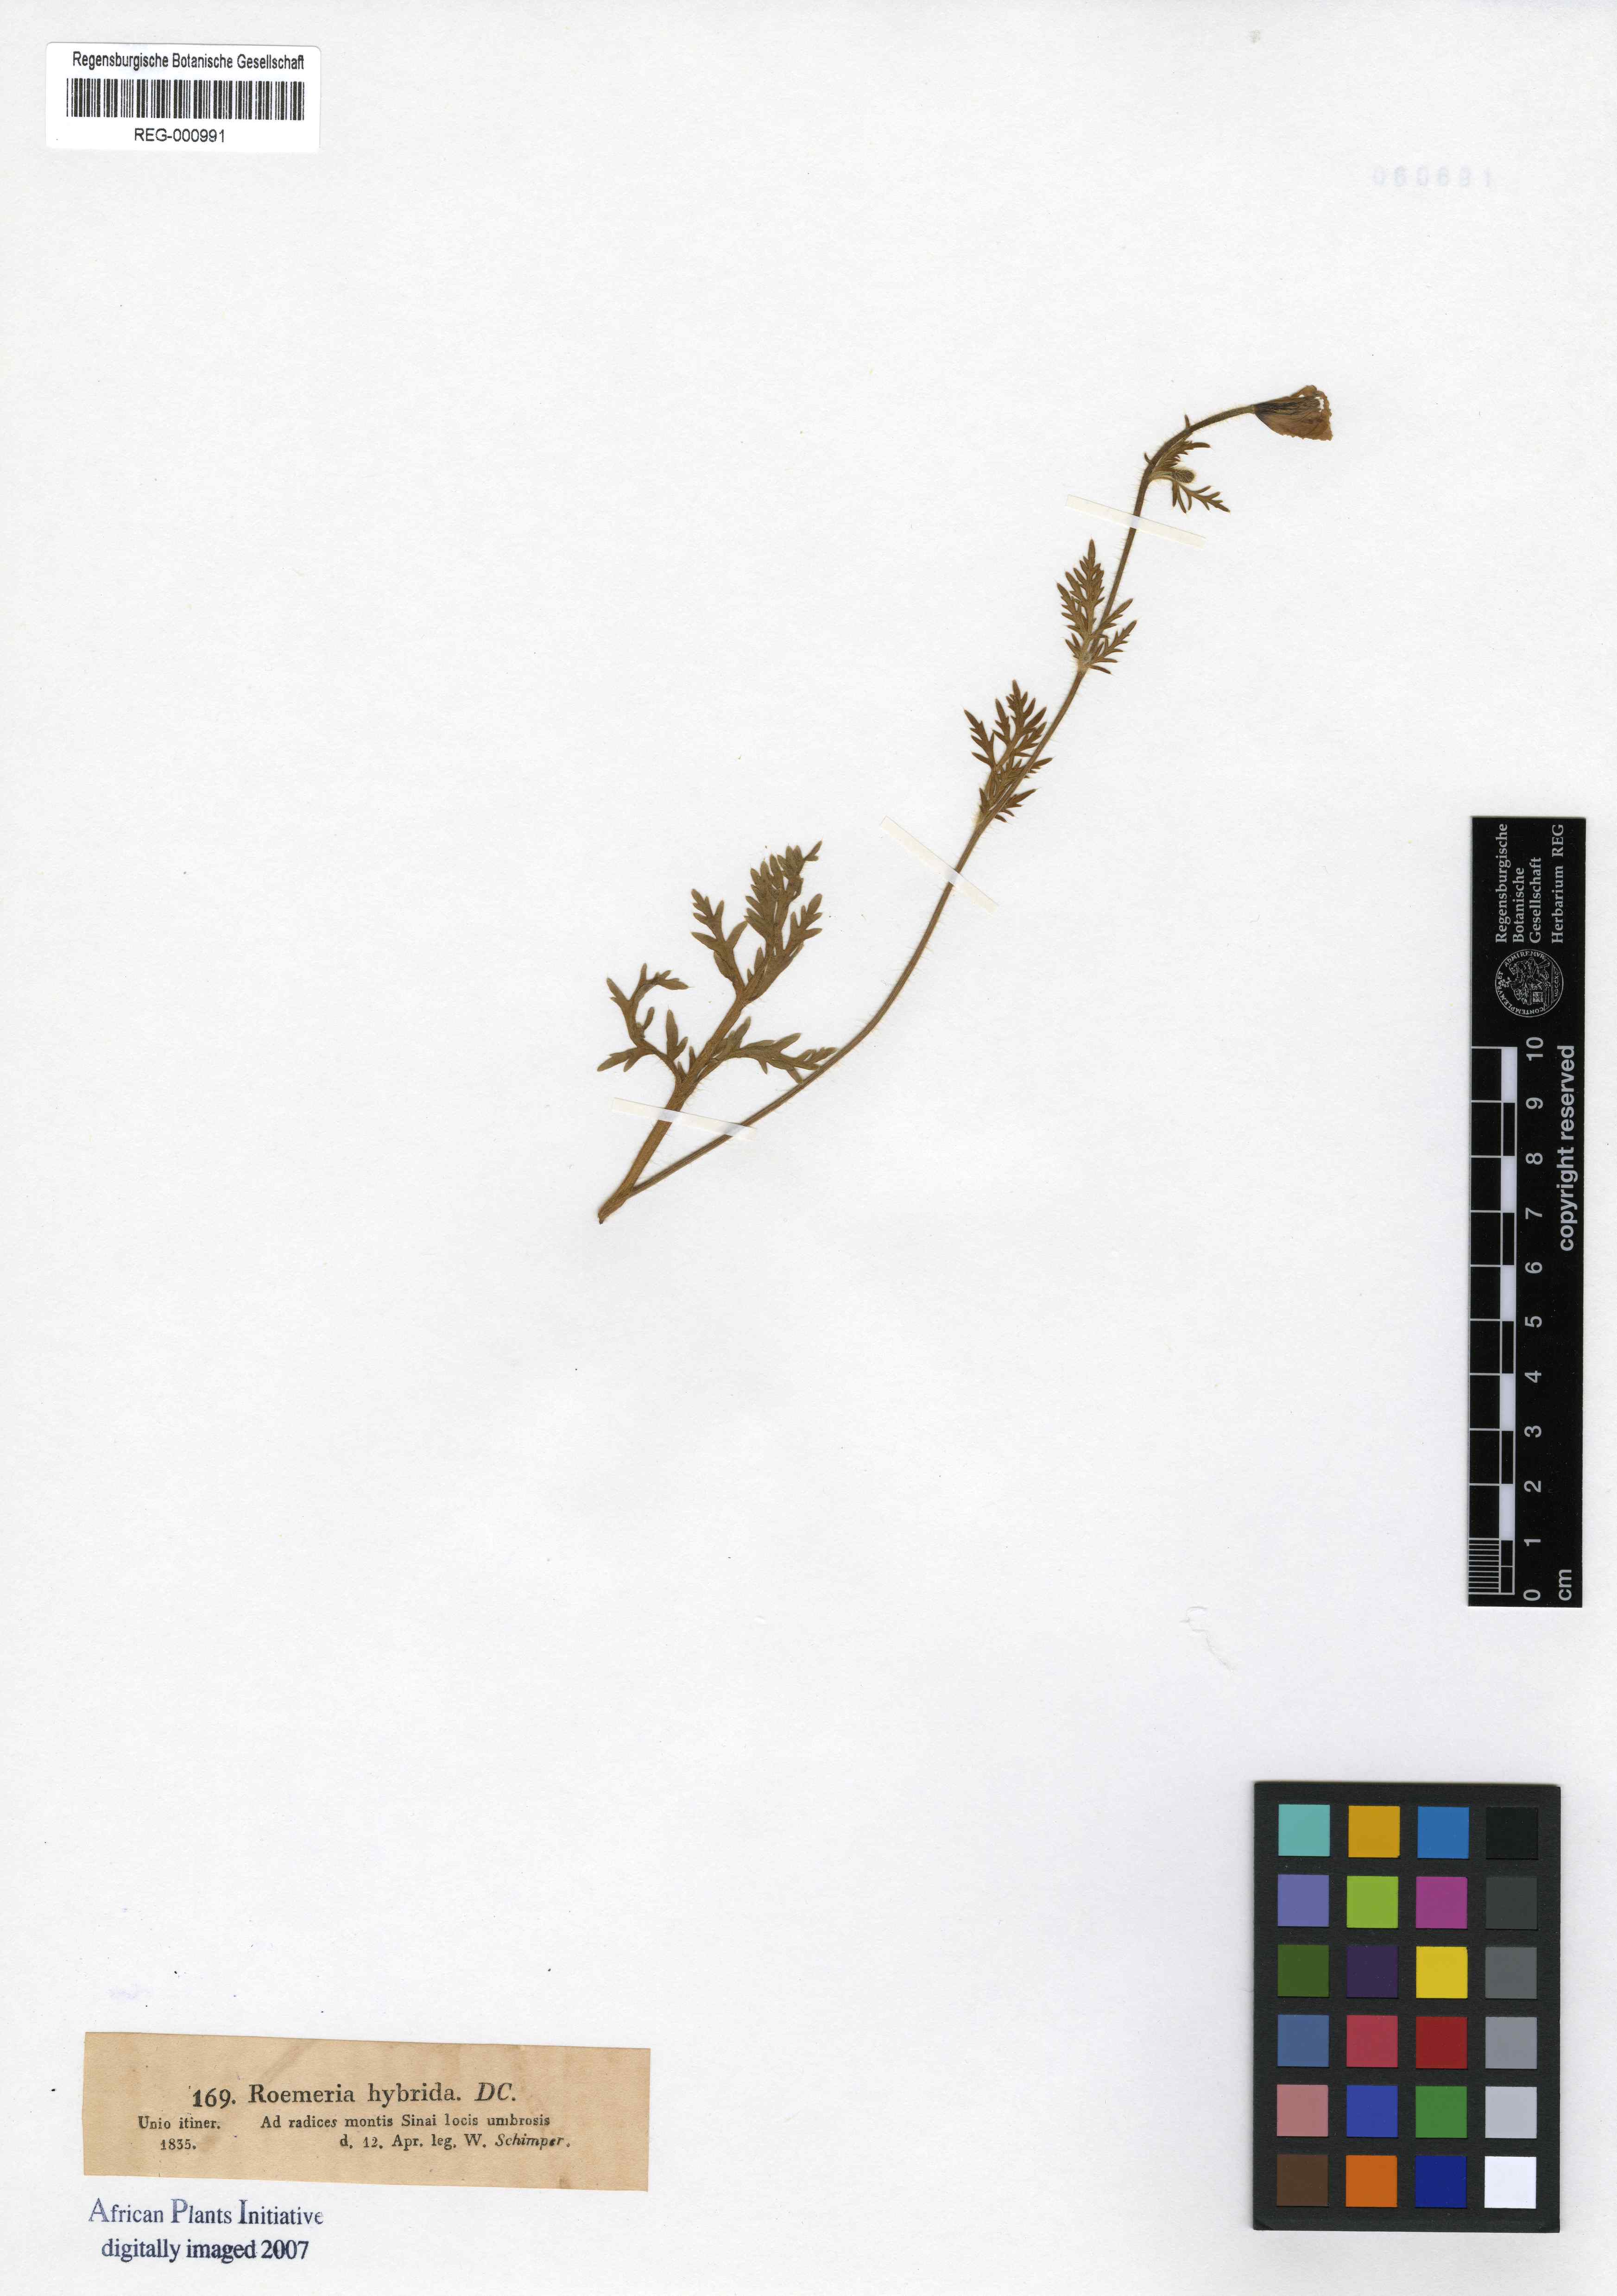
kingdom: Plantae
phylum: Tracheophyta
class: Magnoliopsida
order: Ranunculales
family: Papaveraceae
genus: Roemeria
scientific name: Roemeria hybrida
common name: Violet horned-poppy
